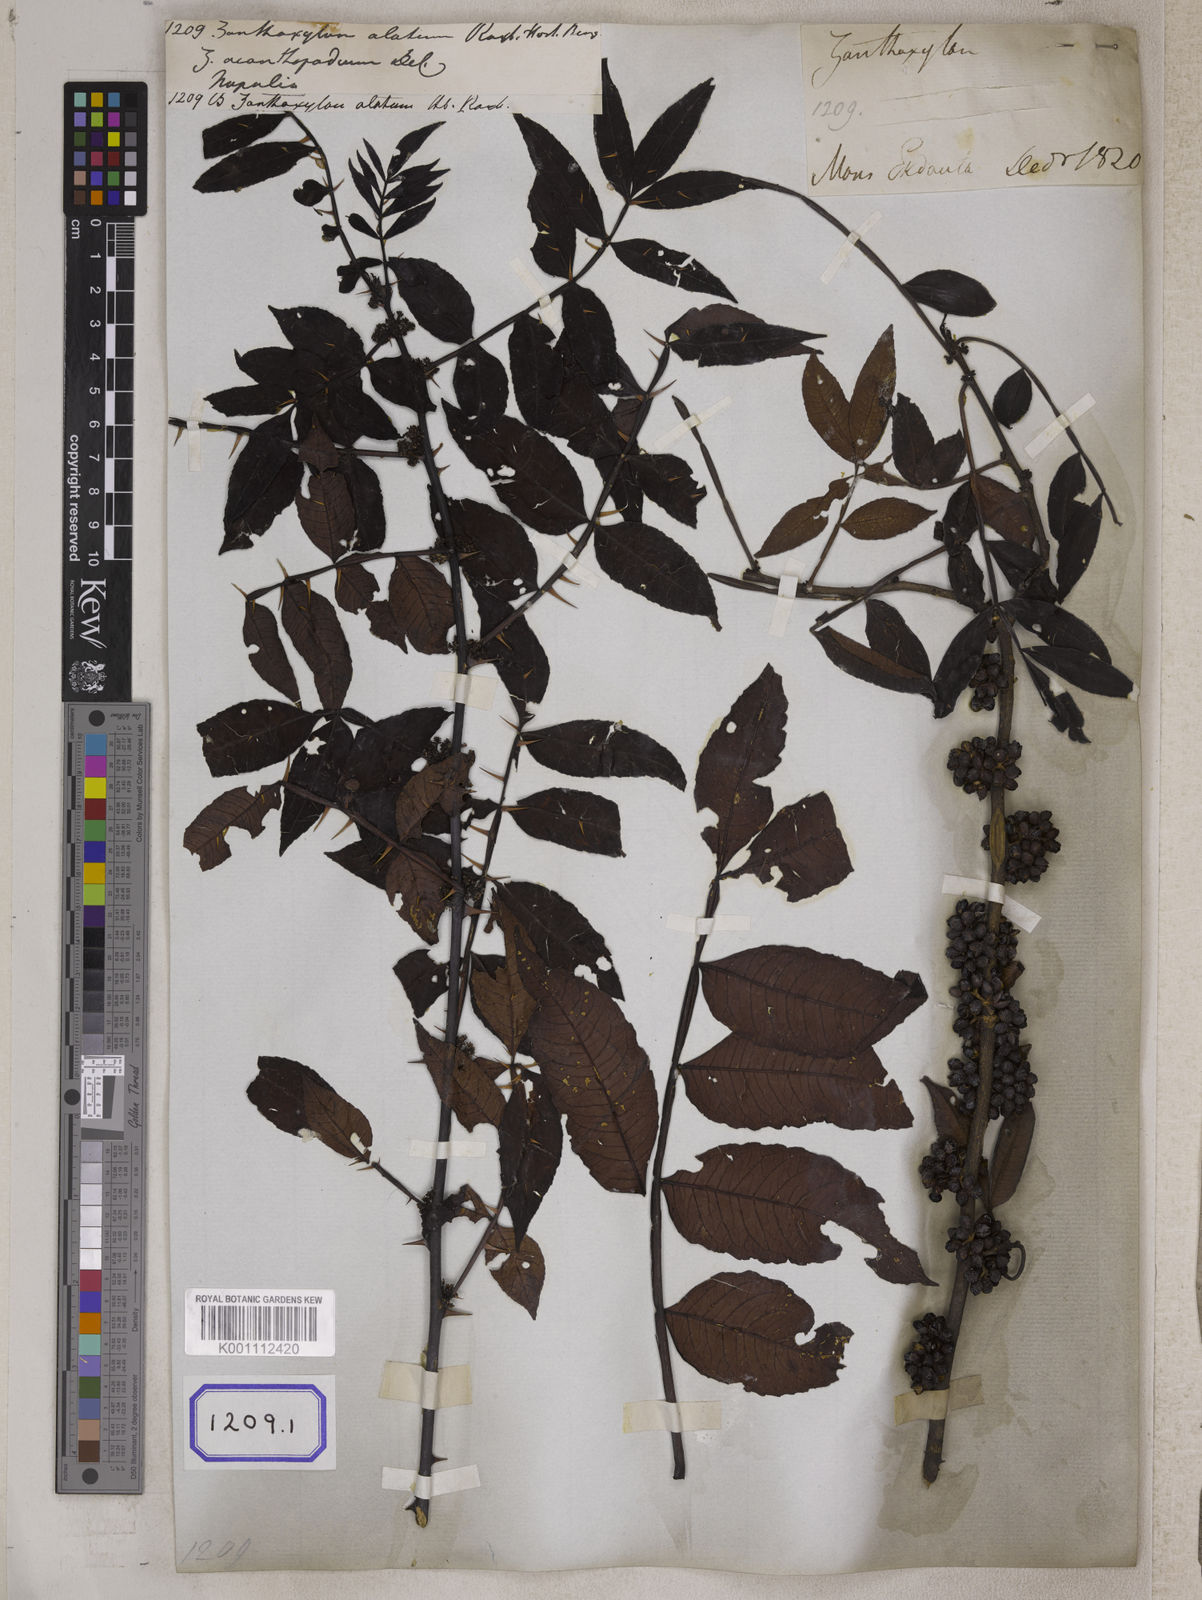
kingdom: Plantae
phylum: Tracheophyta
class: Magnoliopsida
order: Sapindales
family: Rutaceae
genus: Zanthoxylum
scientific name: Zanthoxylum armatum
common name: Winged prickly-ash
